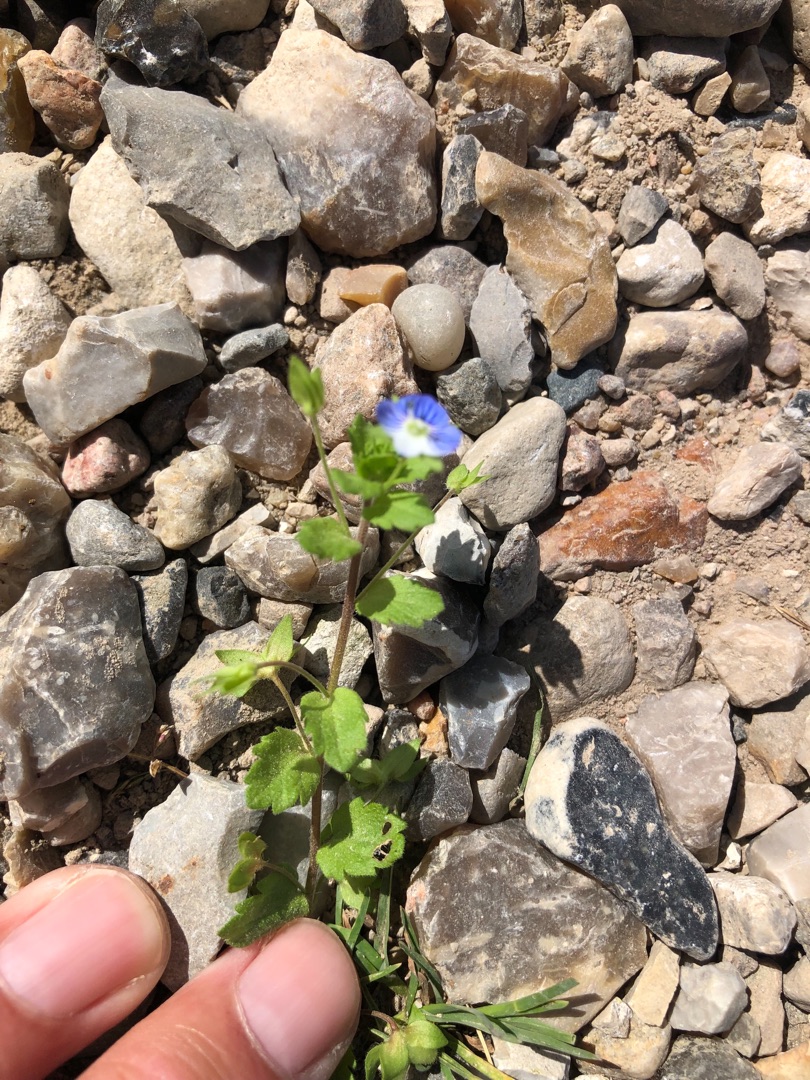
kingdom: Plantae
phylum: Tracheophyta
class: Magnoliopsida
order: Lamiales
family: Plantaginaceae
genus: Veronica
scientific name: Veronica persica
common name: Storkronet ærenpris
